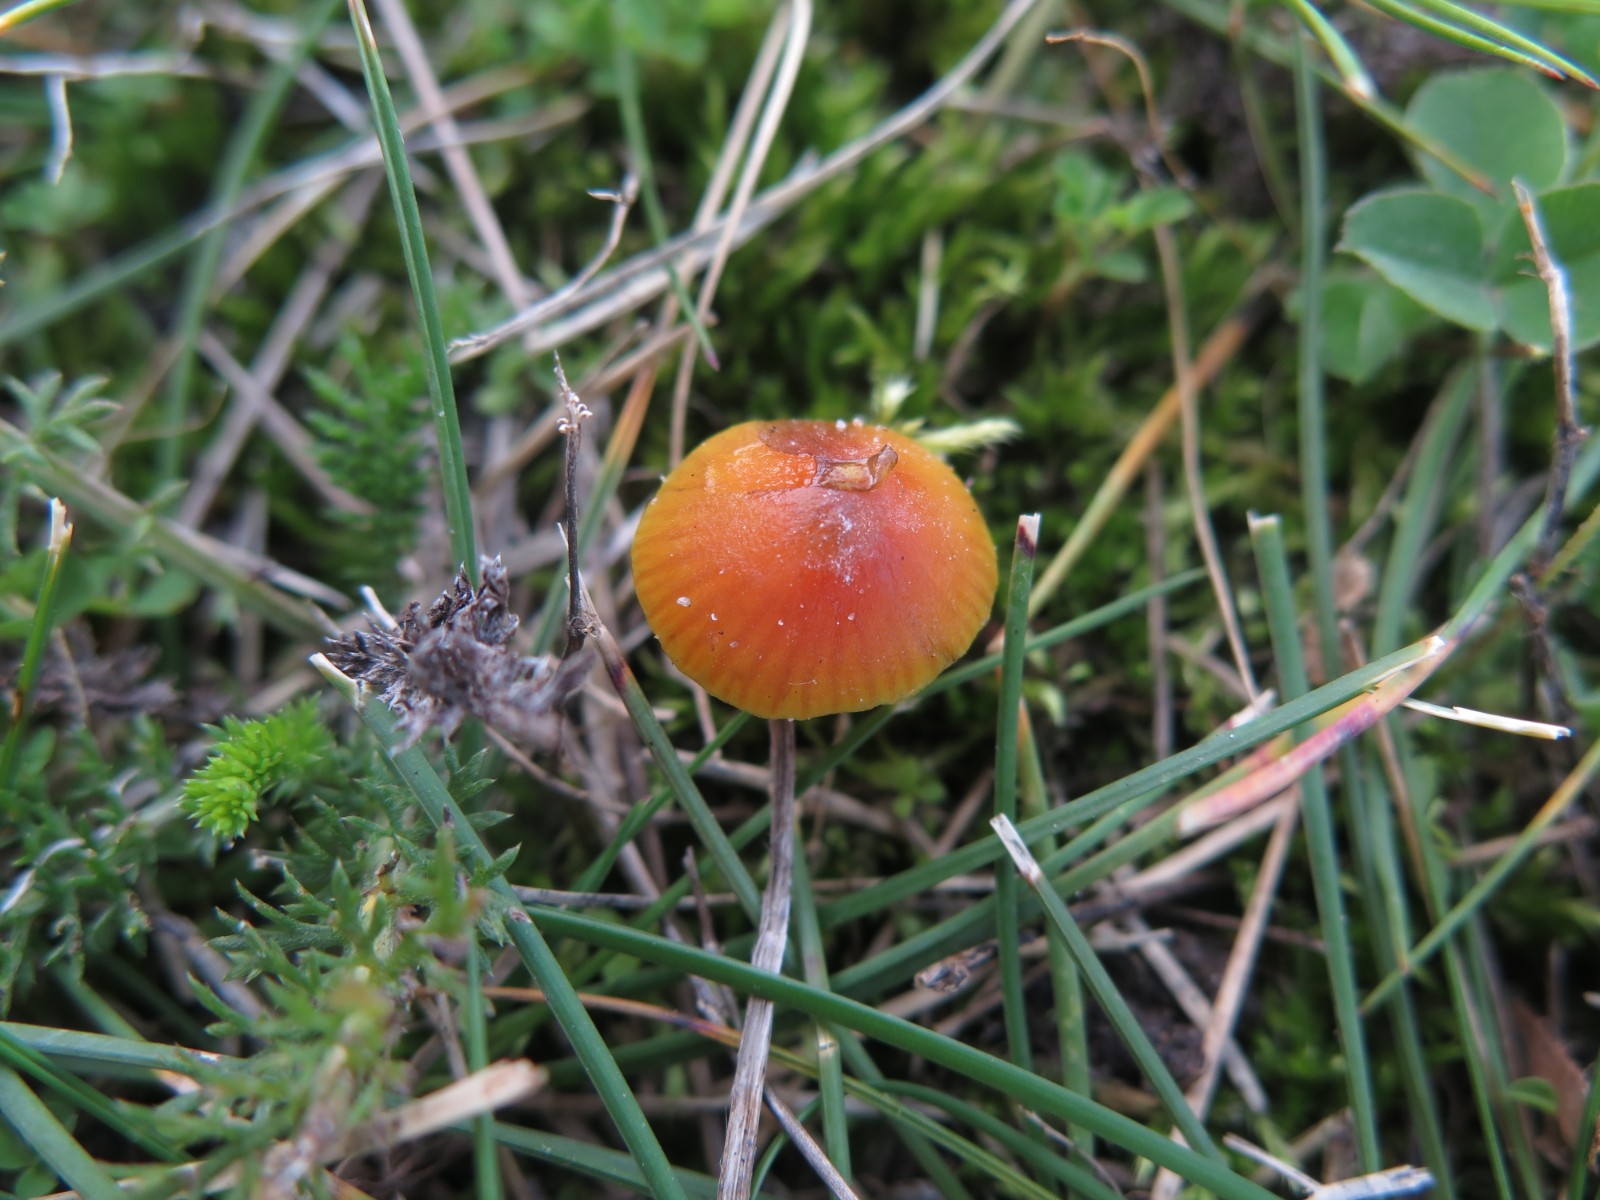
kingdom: Fungi
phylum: Basidiomycota
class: Agaricomycetes
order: Agaricales
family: Hygrophoraceae
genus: Hygrocybe
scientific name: Hygrocybe conica
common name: kegle-vokshat
